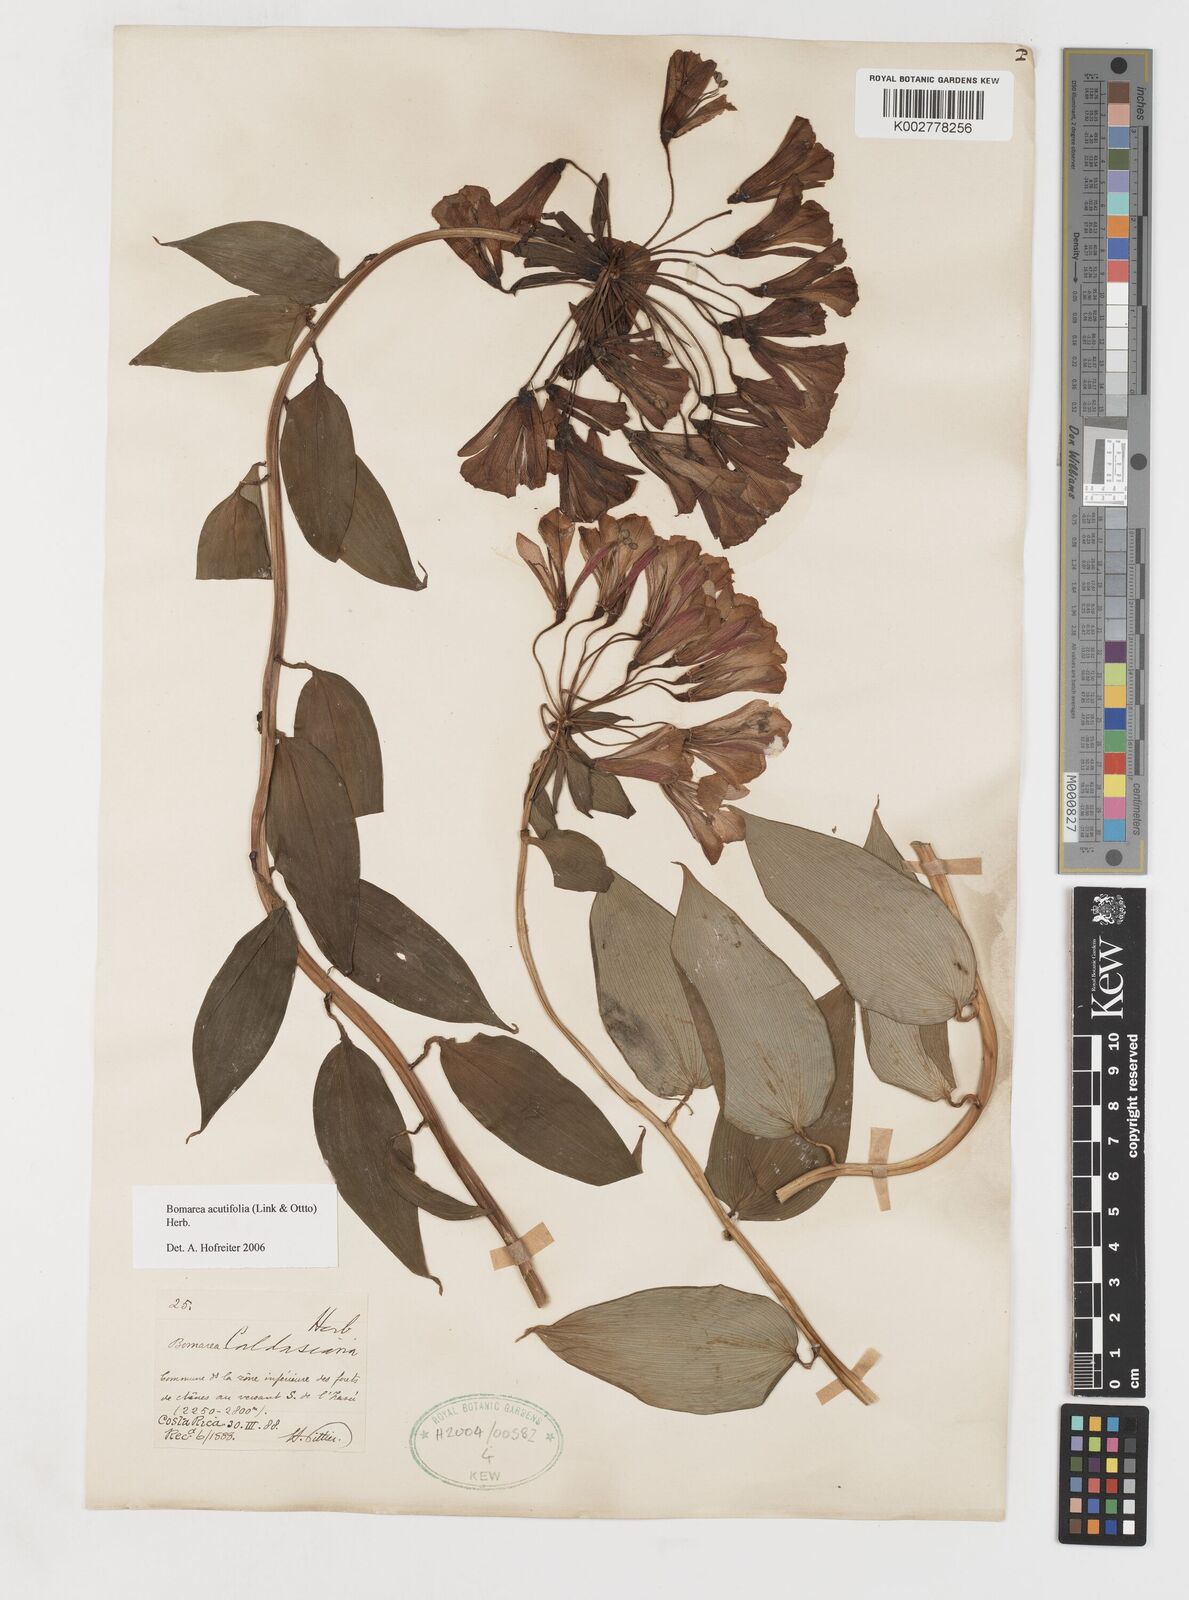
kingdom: Plantae
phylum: Tracheophyta
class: Liliopsida
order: Liliales
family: Alstroemeriaceae
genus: Bomarea
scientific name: Bomarea acutifolia
